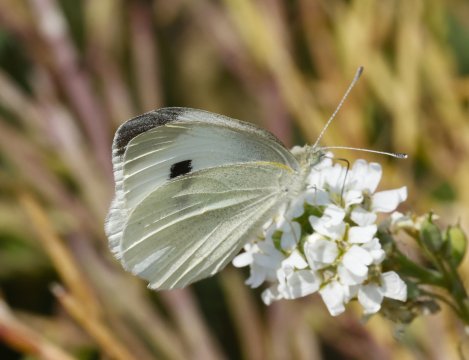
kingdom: Animalia
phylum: Arthropoda
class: Insecta
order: Lepidoptera
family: Pieridae
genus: Pieris
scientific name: Pieris rapae
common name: Cabbage White
